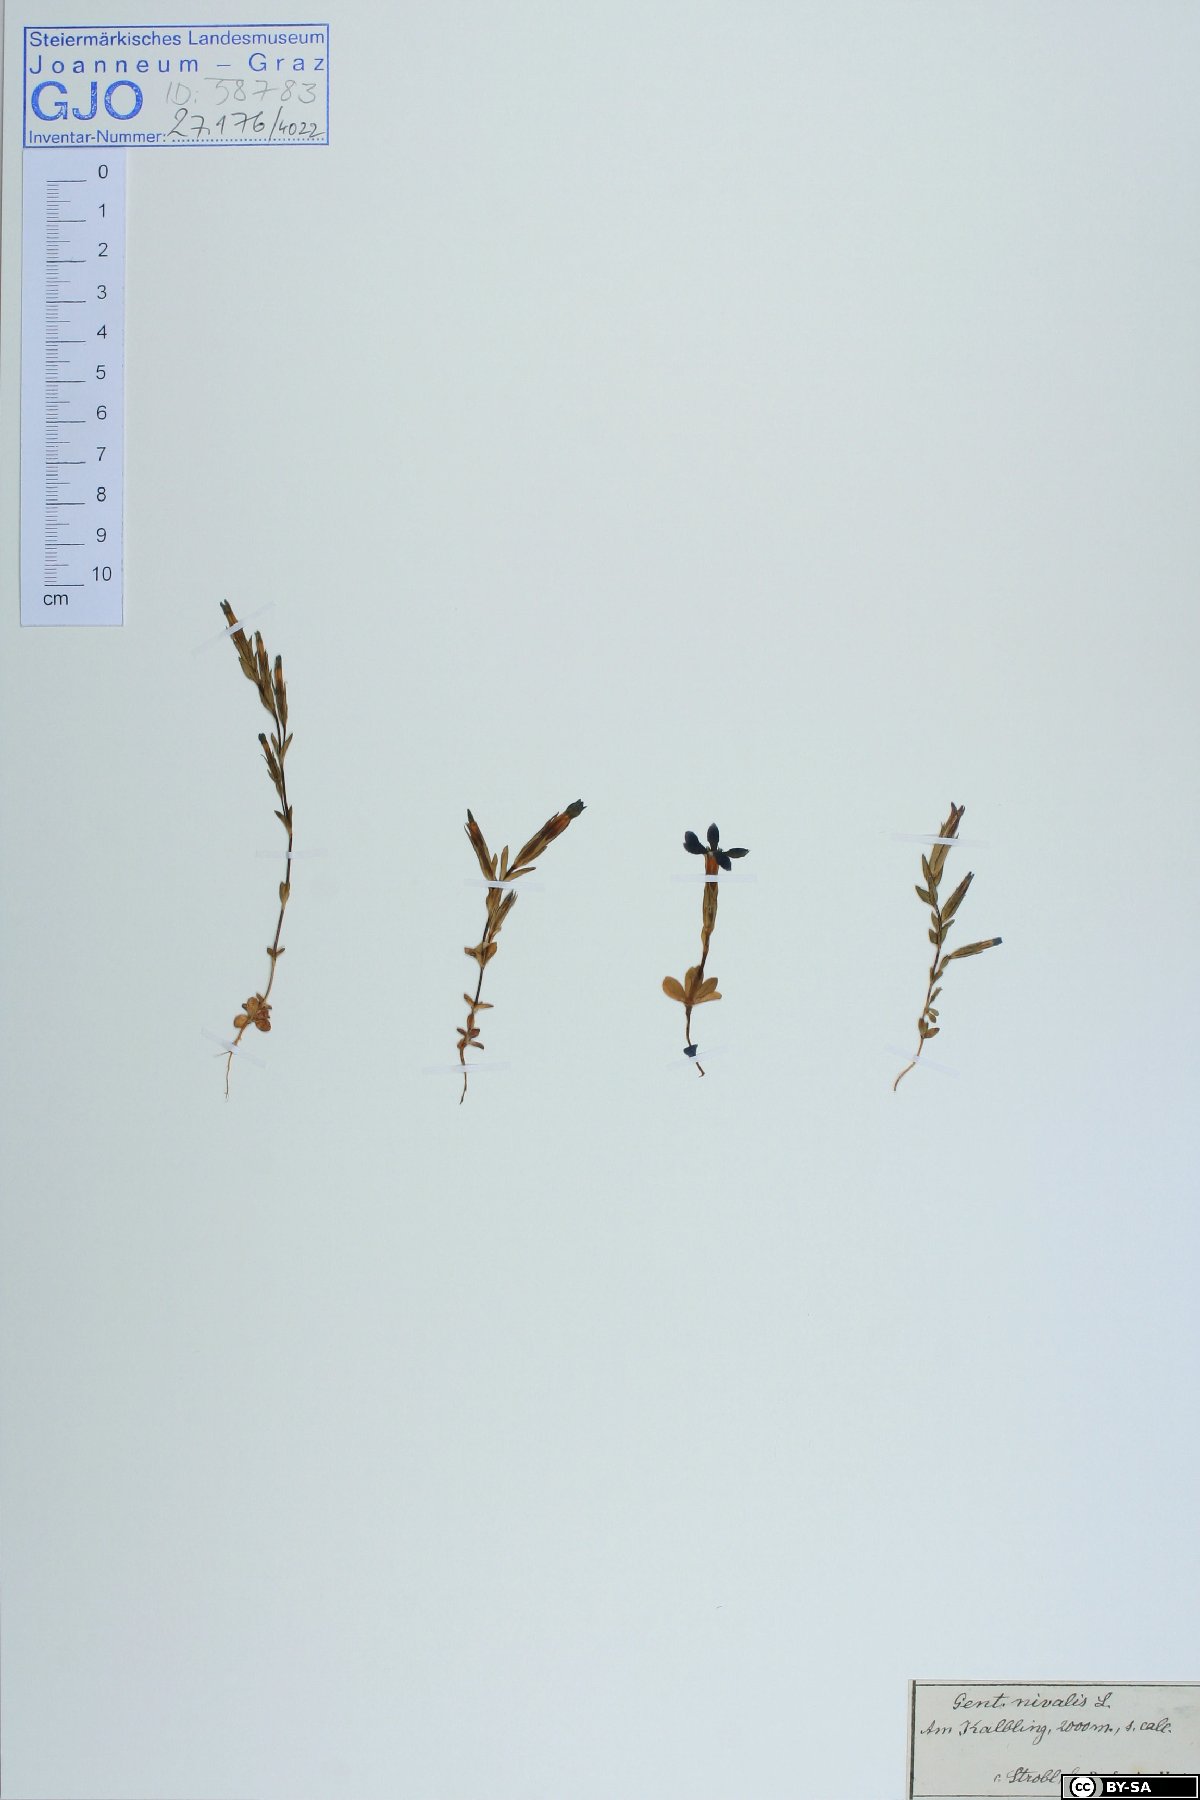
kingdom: Plantae
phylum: Tracheophyta
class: Magnoliopsida
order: Gentianales
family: Gentianaceae
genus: Gentiana
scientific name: Gentiana nivalis
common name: Alpine gentian
